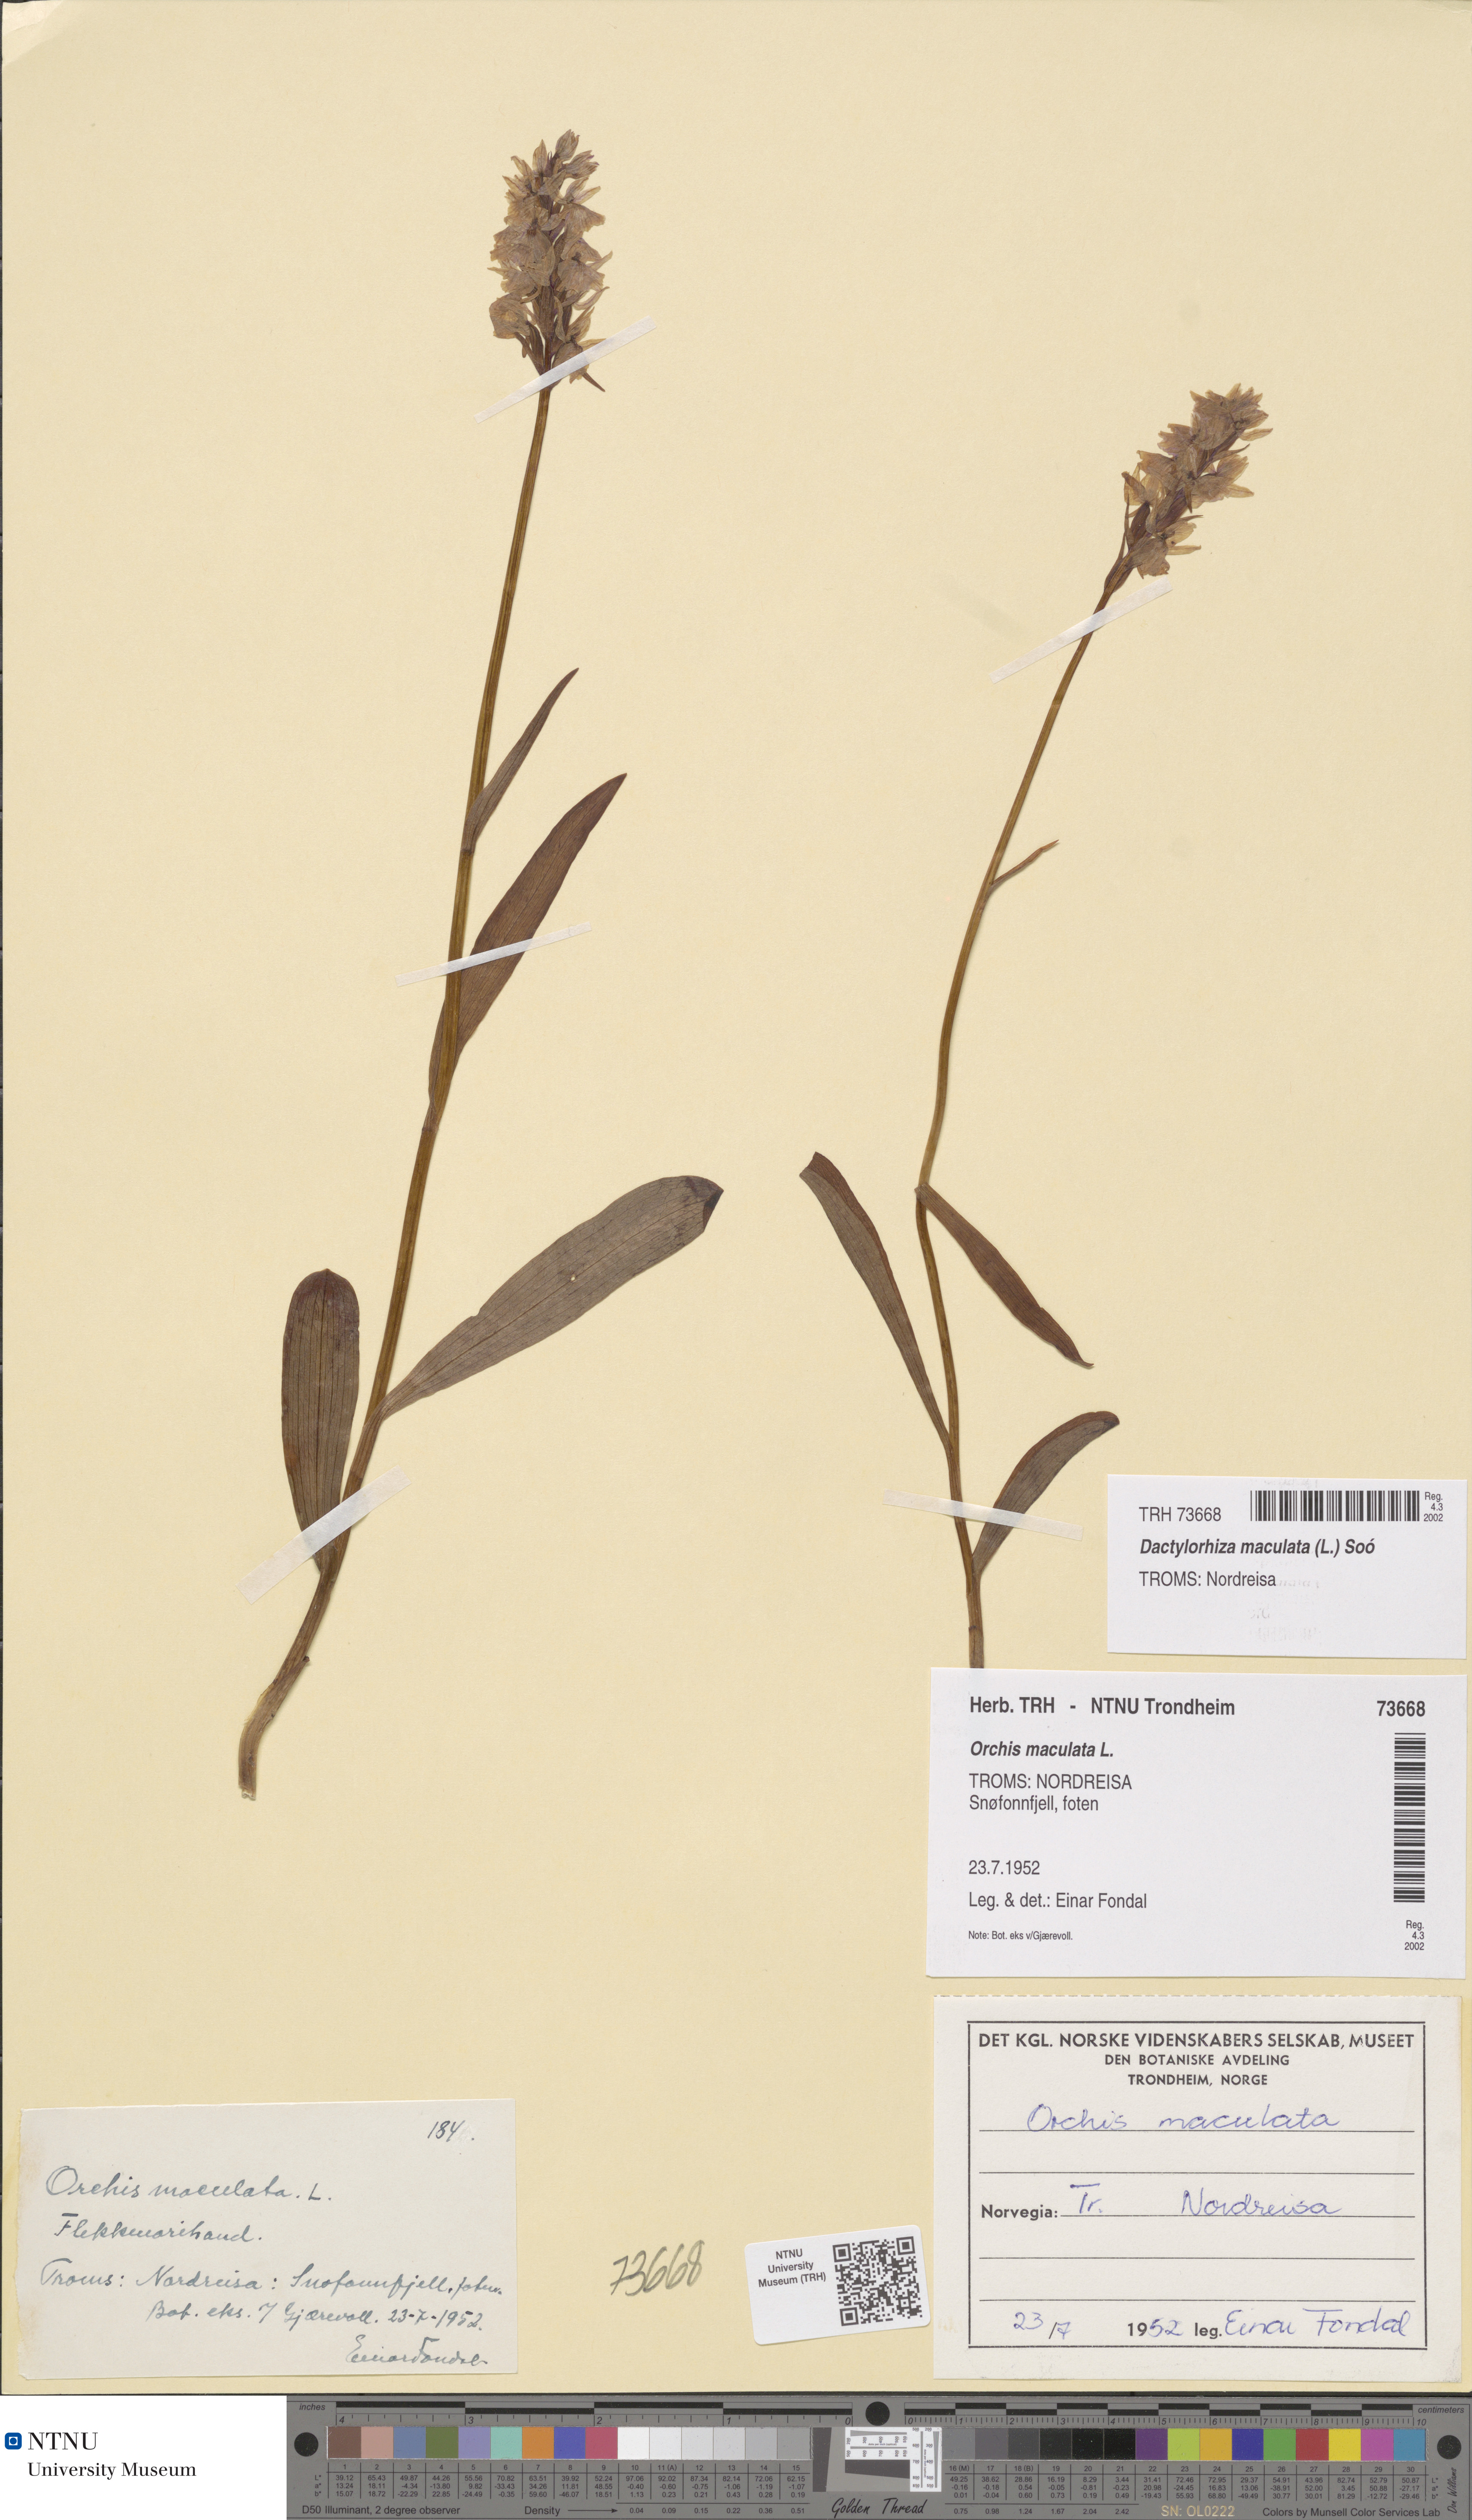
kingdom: Plantae
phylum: Tracheophyta
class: Liliopsida
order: Asparagales
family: Orchidaceae
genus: Dactylorhiza
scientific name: Dactylorhiza maculata
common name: Heath spotted-orchid
